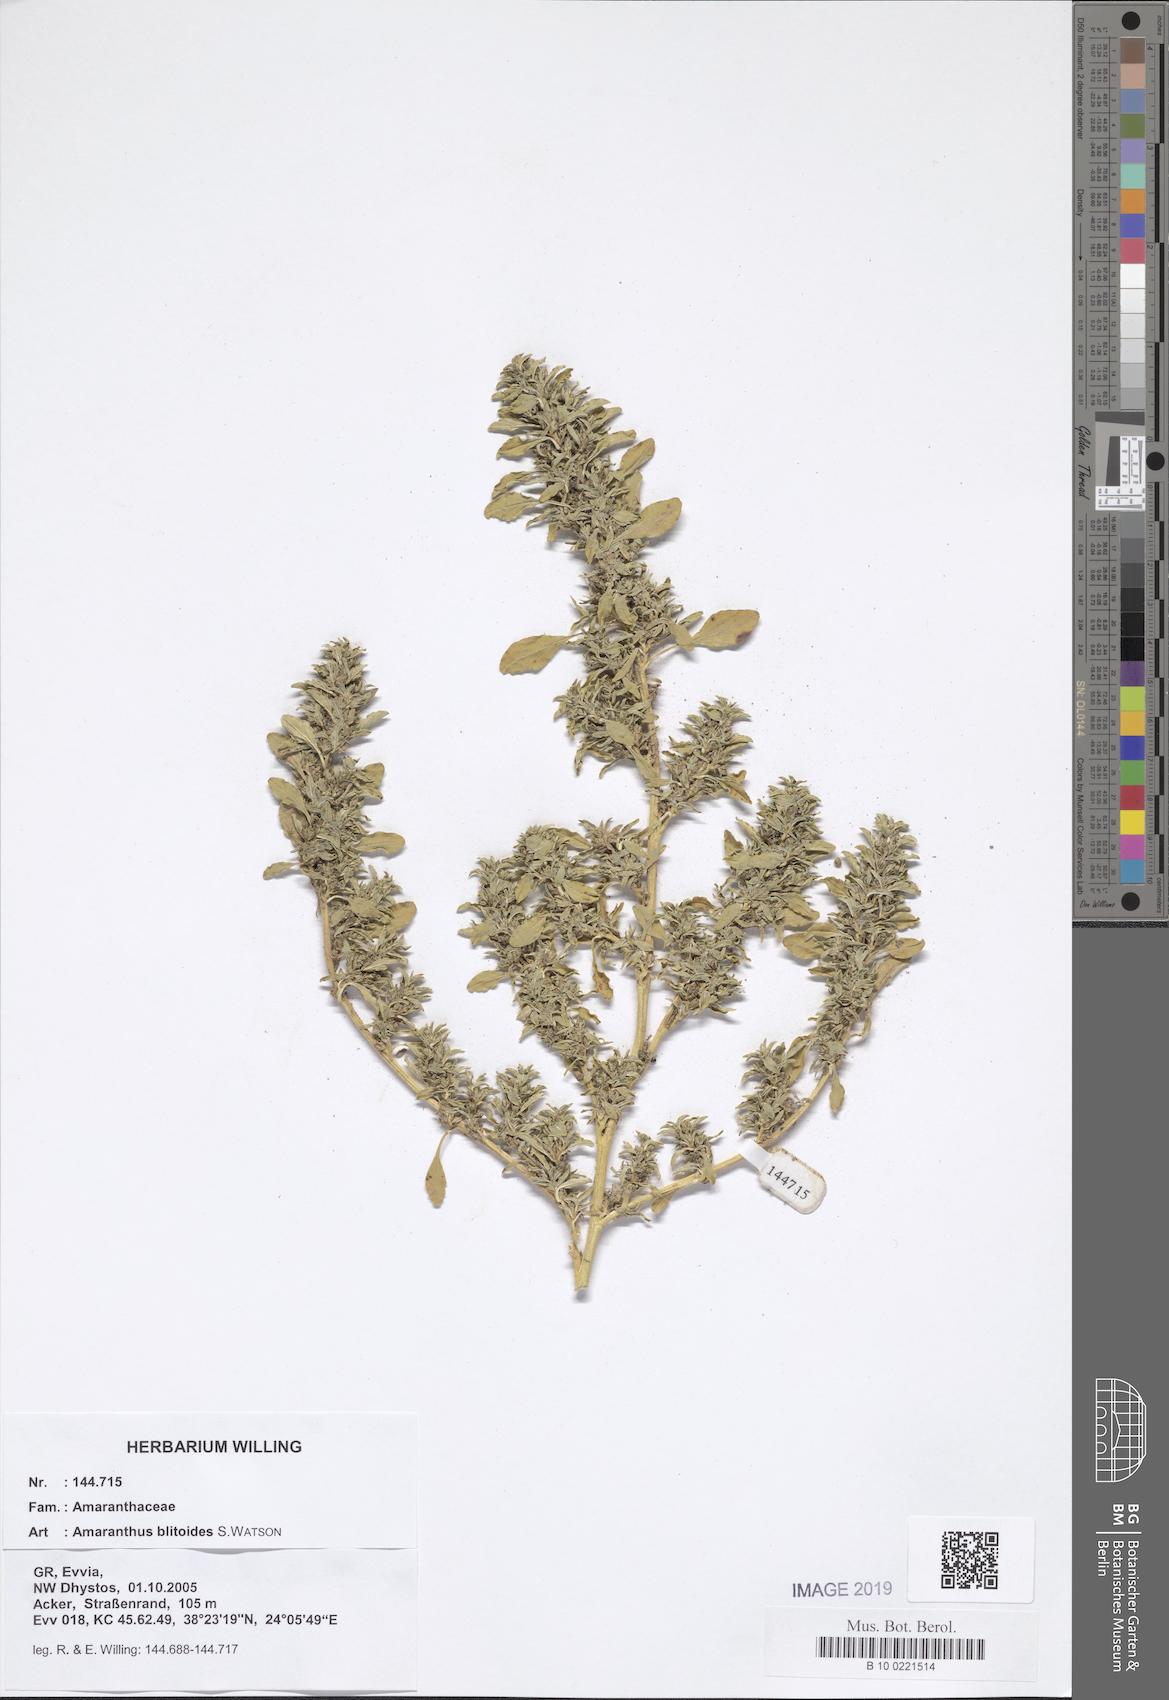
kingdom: Plantae
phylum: Tracheophyta
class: Magnoliopsida
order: Caryophyllales
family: Amaranthaceae
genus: Amaranthus
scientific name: Amaranthus blitoides
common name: Prostrate pigweed
